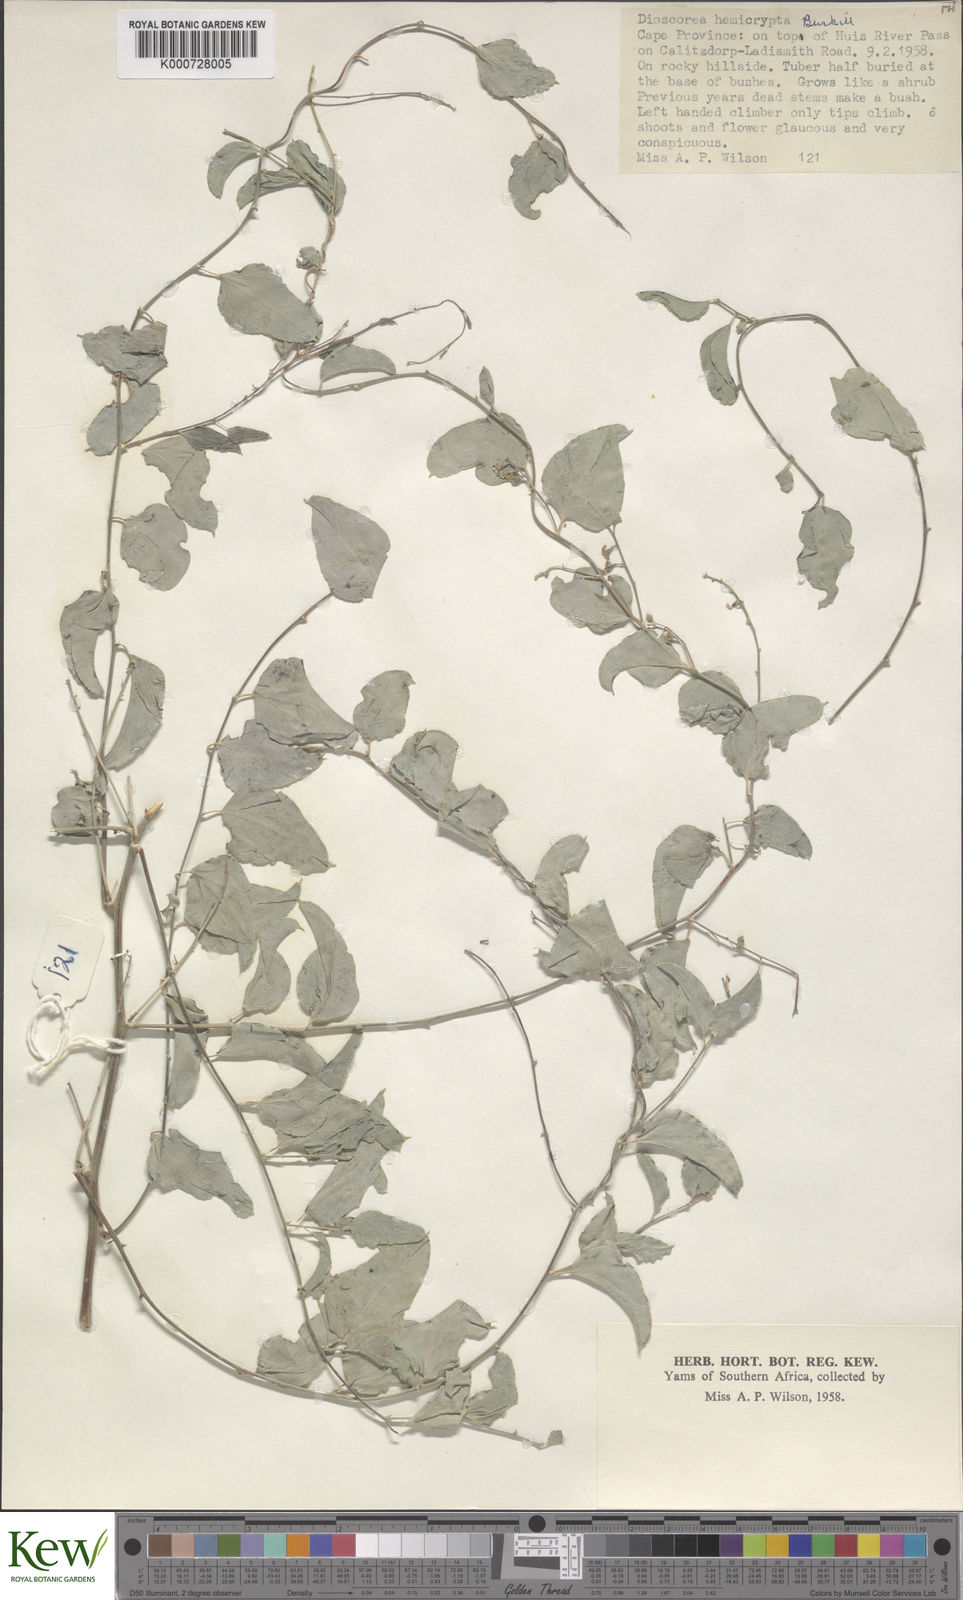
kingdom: Plantae
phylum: Tracheophyta
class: Liliopsida
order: Dioscoreales
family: Dioscoreaceae
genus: Dioscorea
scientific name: Dioscorea hemicrypta
